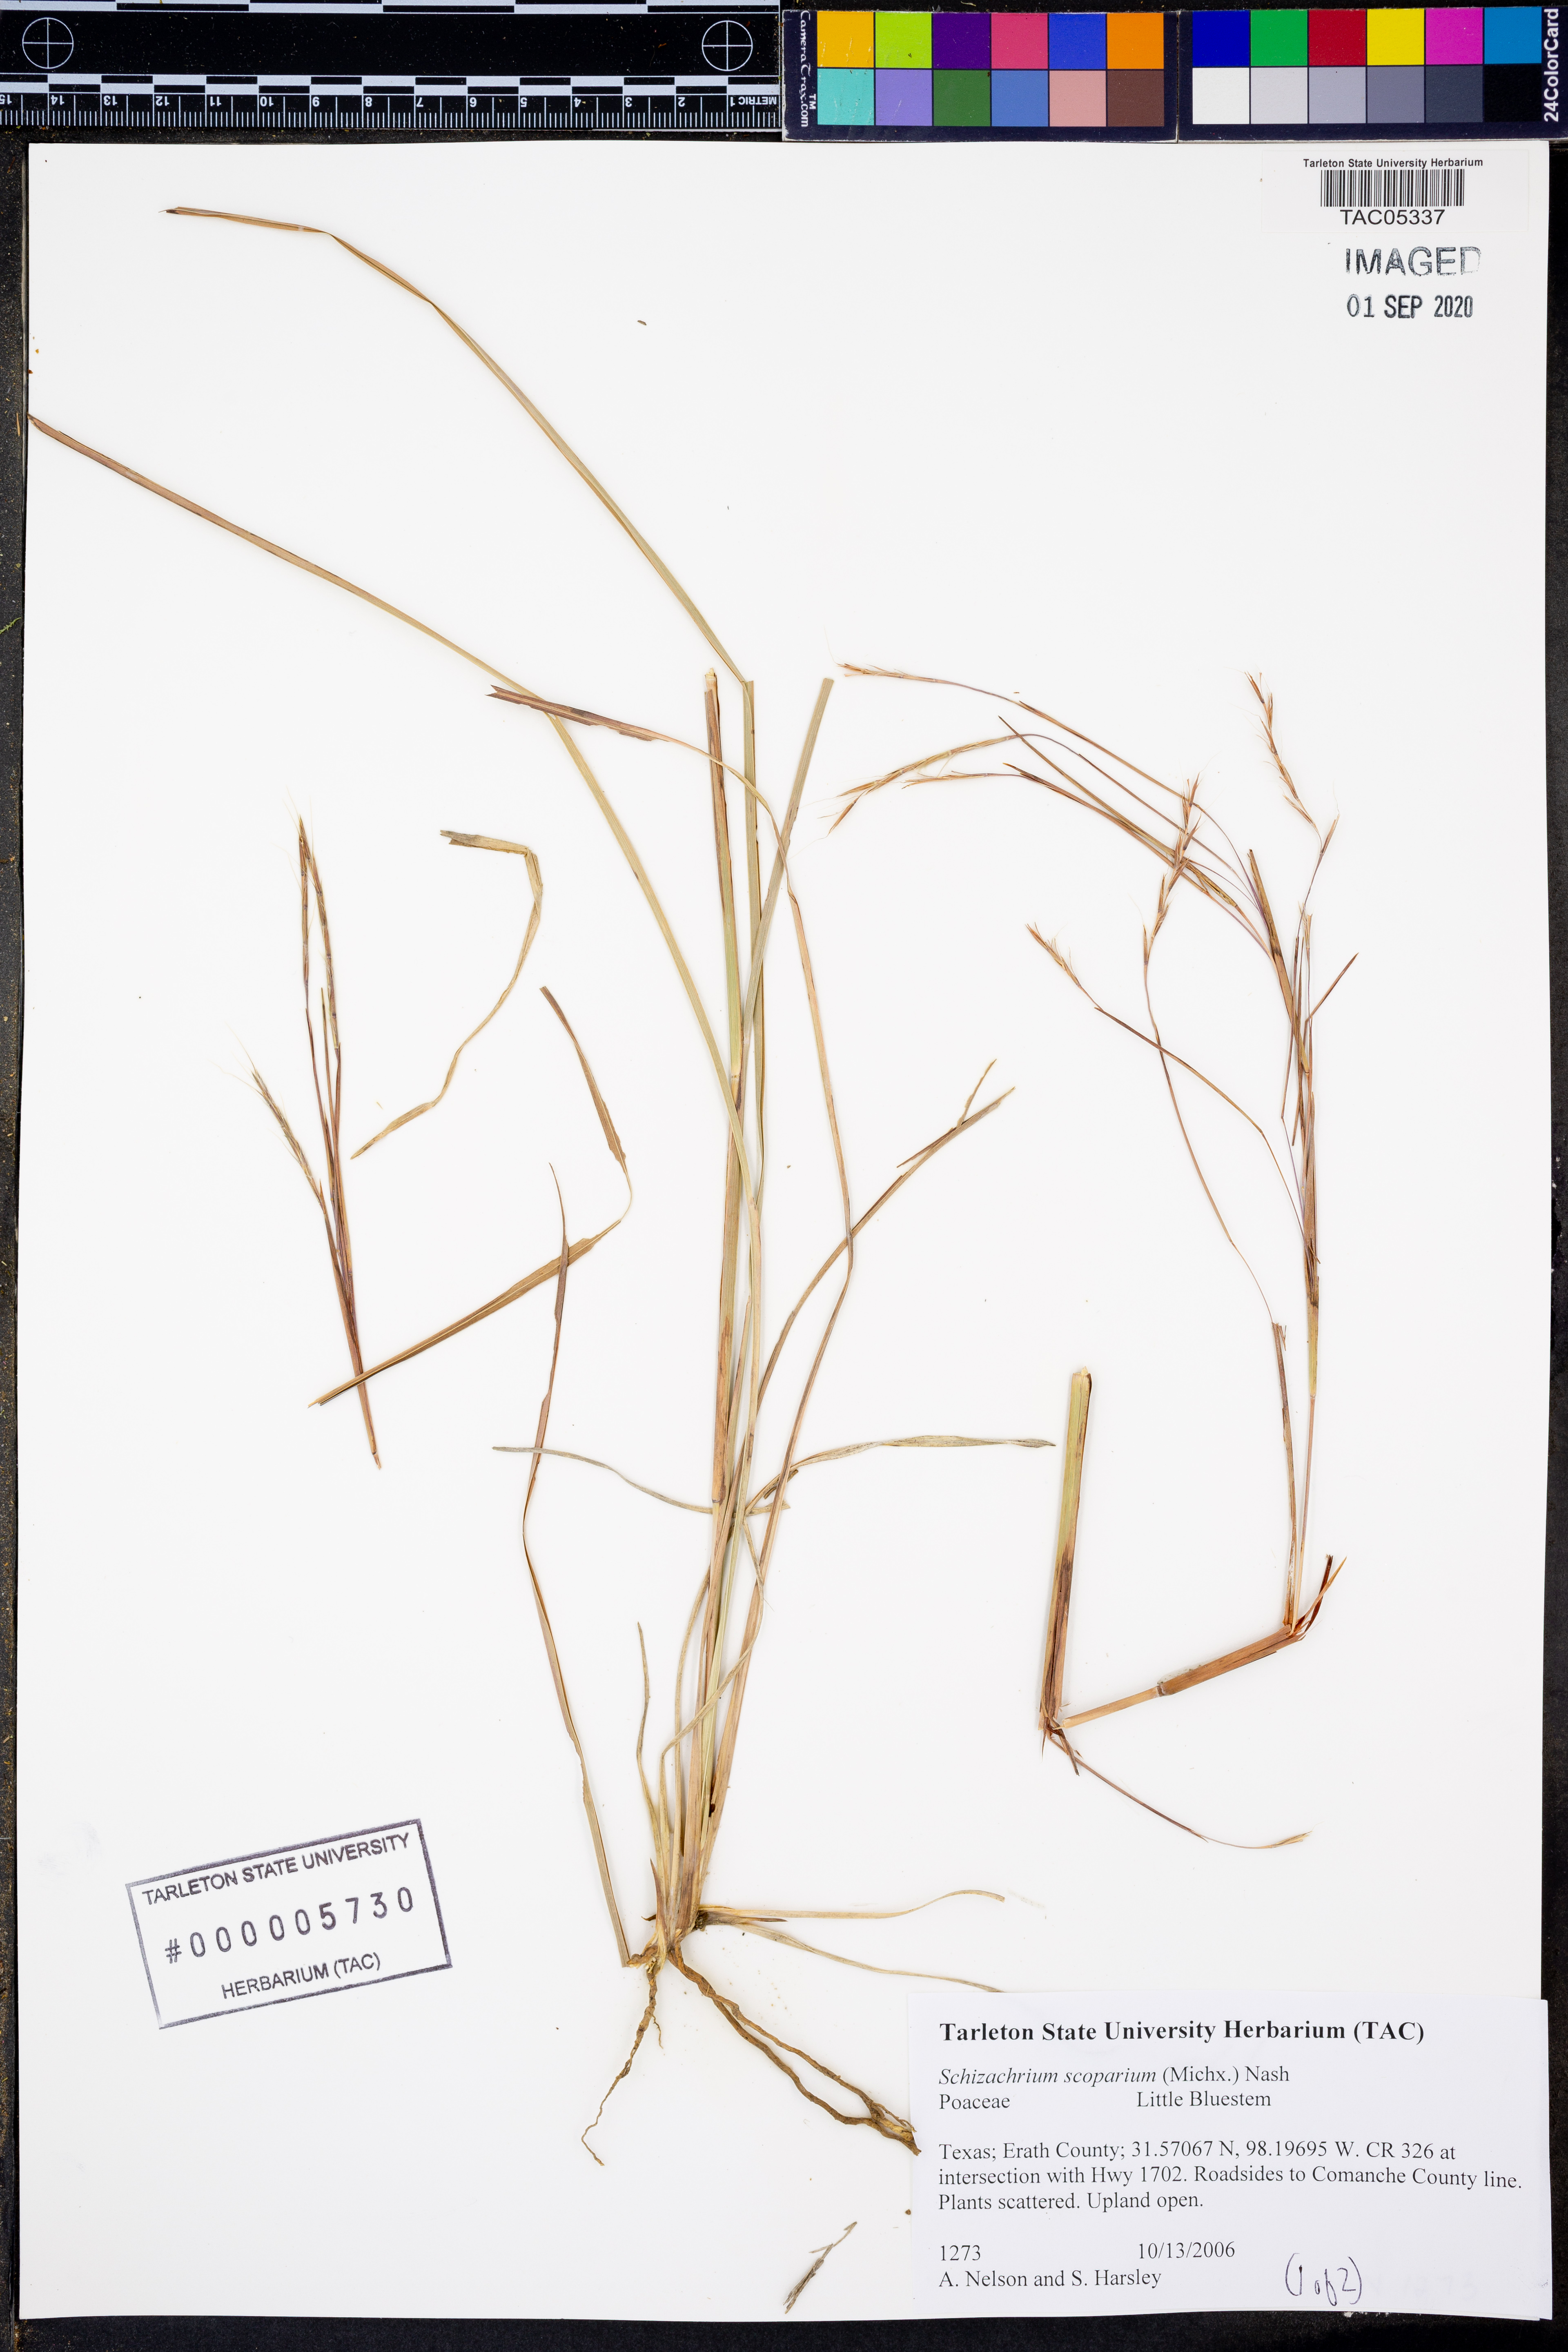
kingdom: Plantae
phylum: Tracheophyta
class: Liliopsida
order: Poales
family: Poaceae
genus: Schizachyrium
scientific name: Schizachyrium scoparium
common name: Little bluestem
